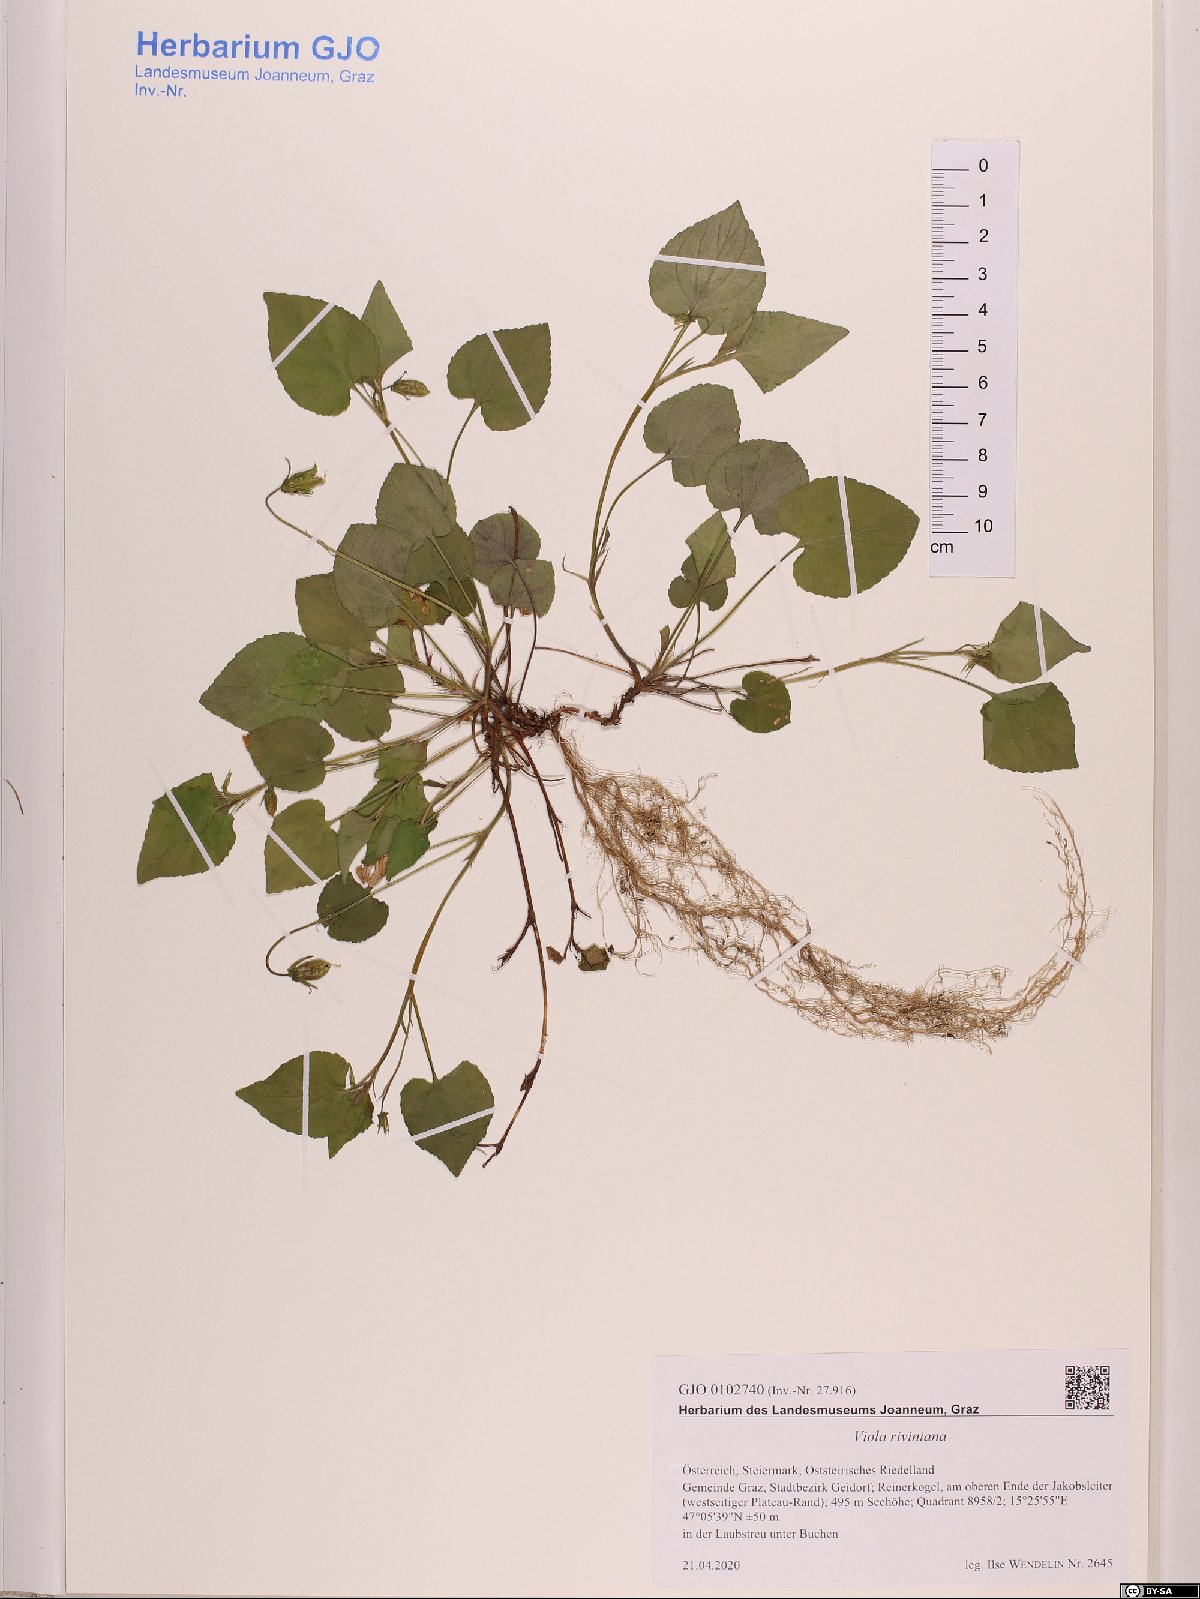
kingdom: Plantae
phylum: Tracheophyta
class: Magnoliopsida
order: Malpighiales
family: Violaceae
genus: Viola
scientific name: Viola riviniana
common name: Common dog-violet
